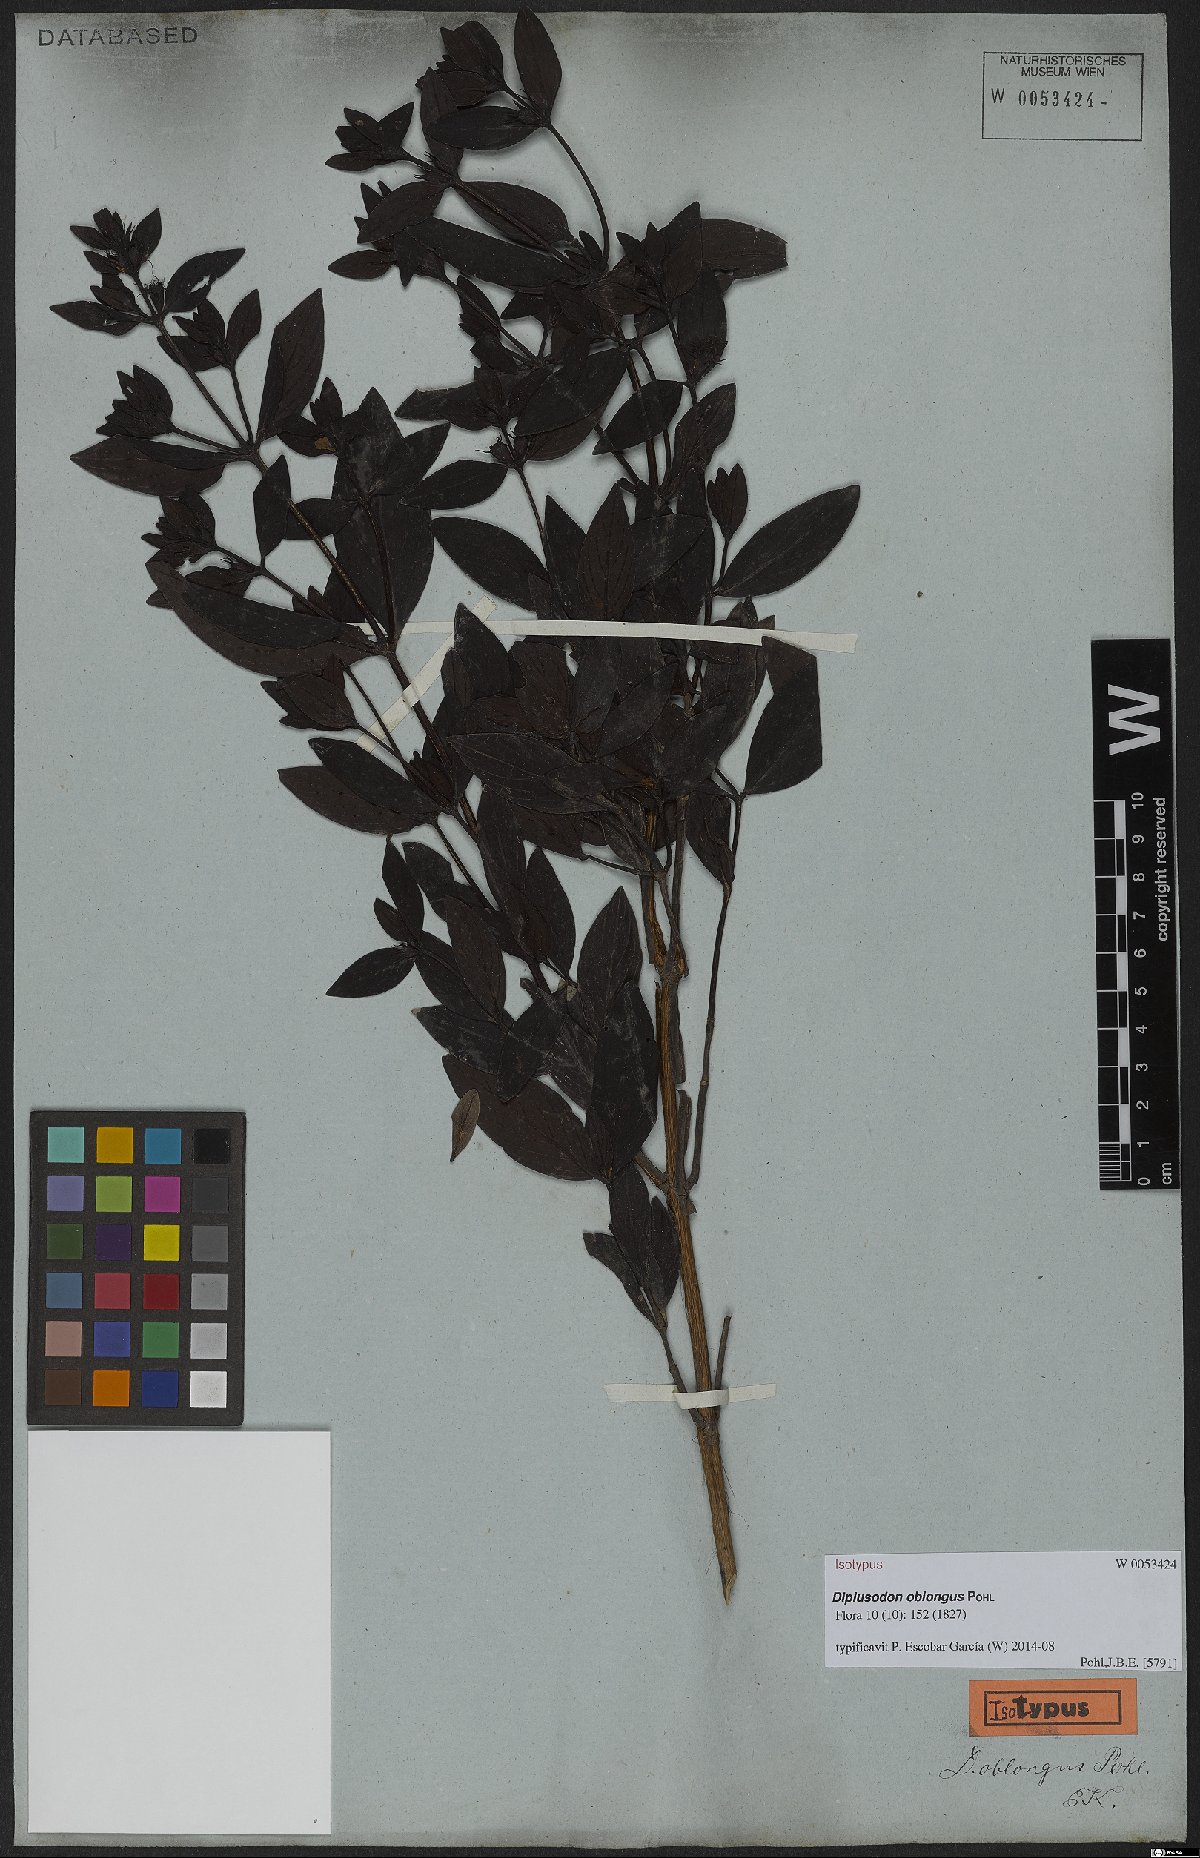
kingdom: Plantae
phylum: Tracheophyta
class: Magnoliopsida
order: Myrtales
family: Lythraceae
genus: Diplusodon
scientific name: Diplusodon oblongus
